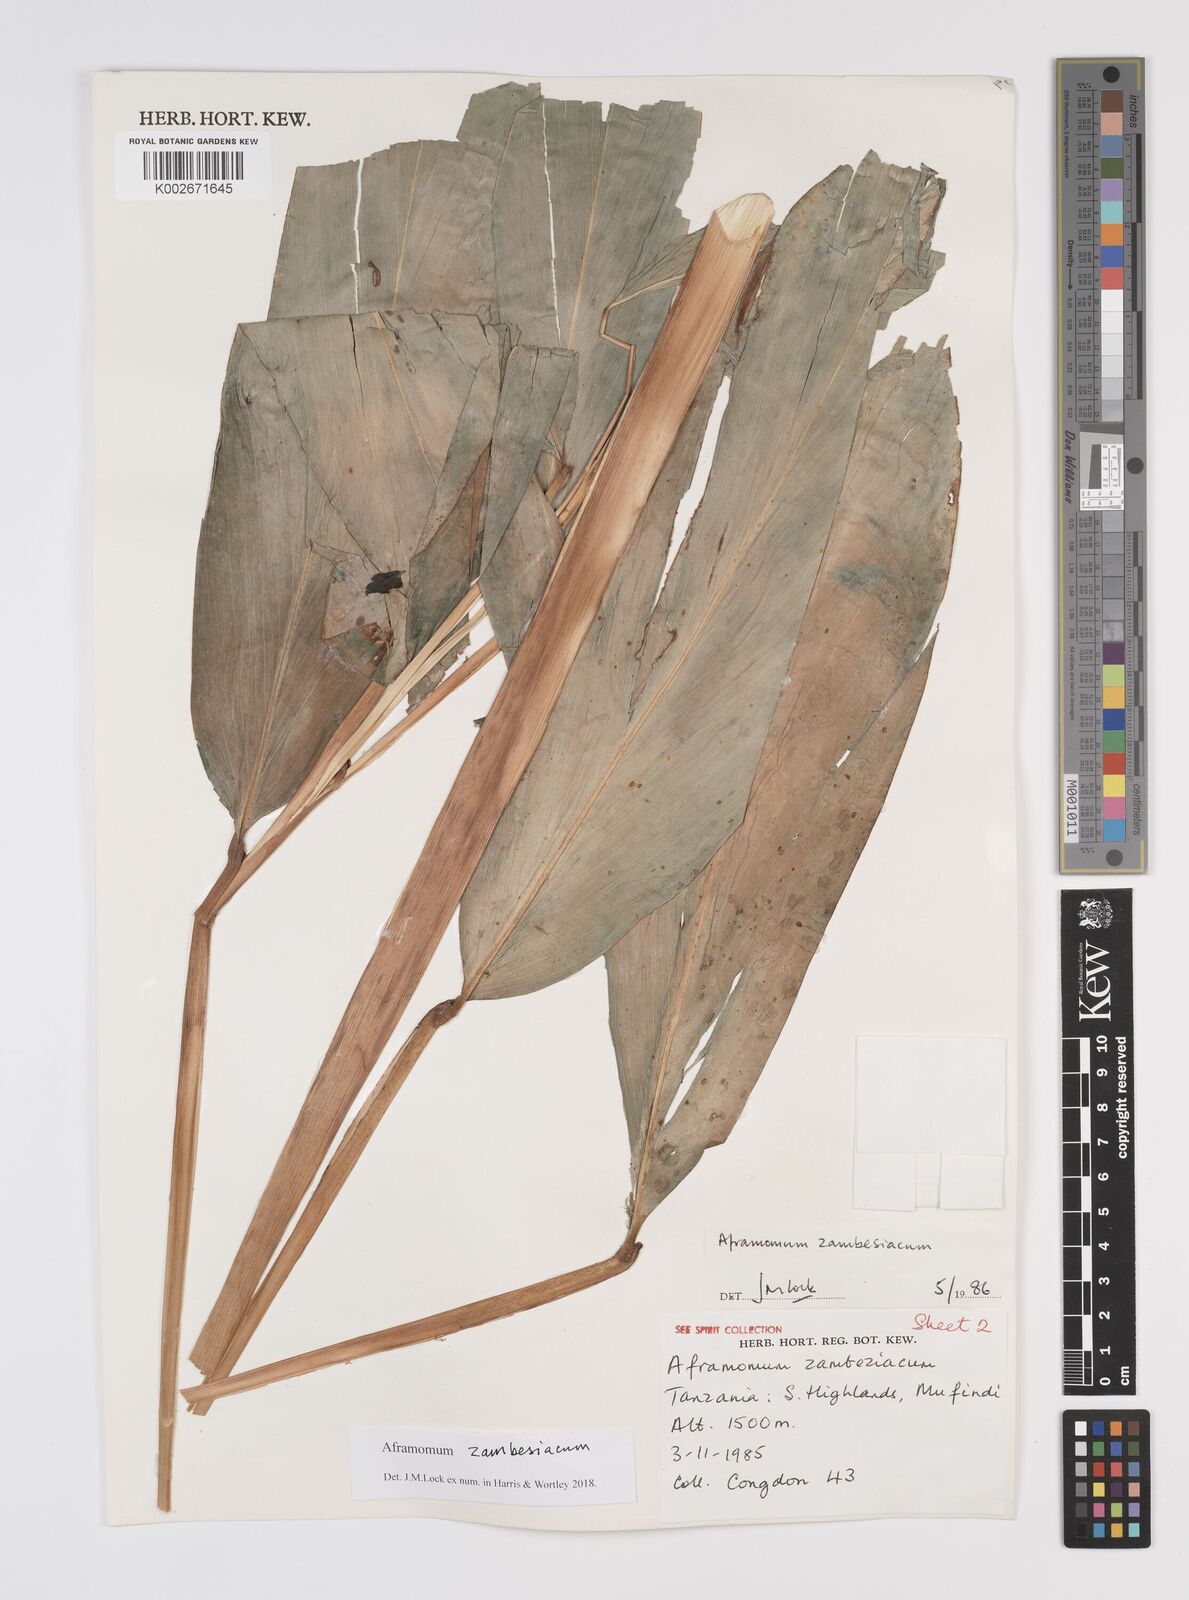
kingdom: Plantae
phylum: Tracheophyta
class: Liliopsida
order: Zingiberales
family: Zingiberaceae
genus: Aframomum
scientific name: Aframomum zambesiacum
